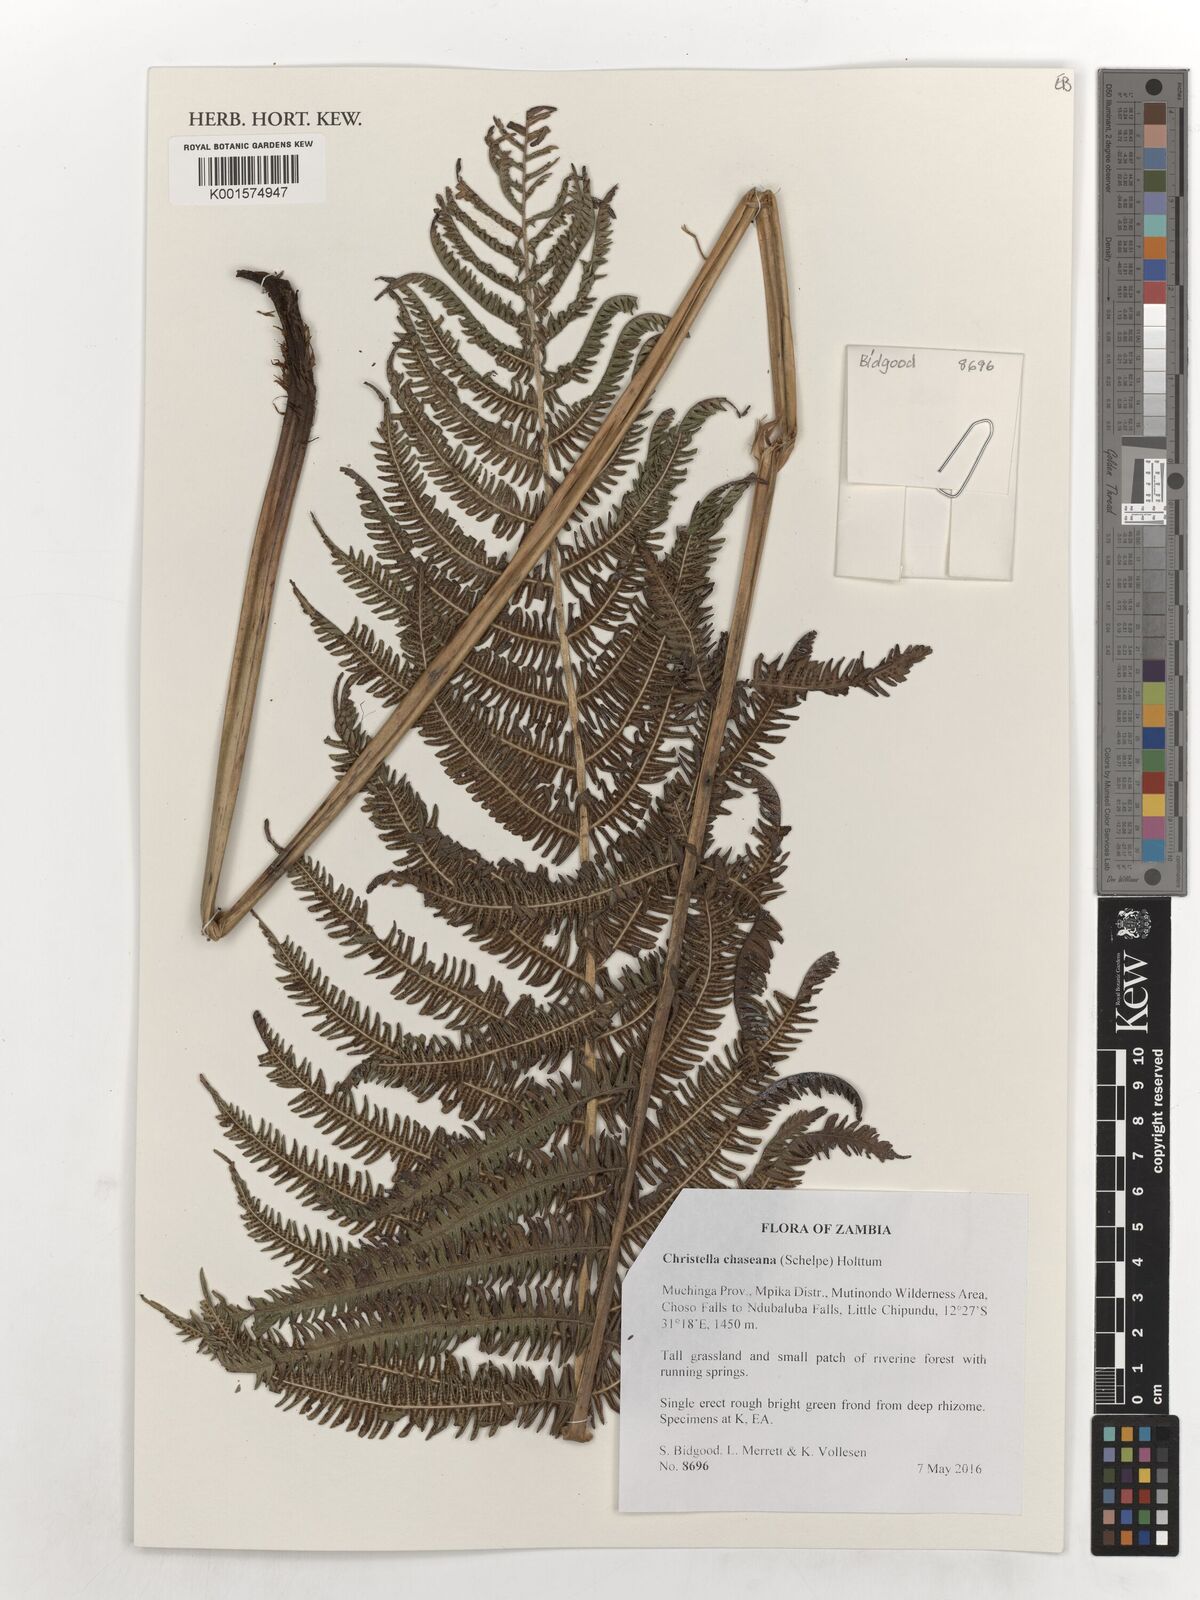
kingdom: Plantae
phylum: Tracheophyta
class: Polypodiopsida
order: Polypodiales
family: Thelypteridaceae
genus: Christella
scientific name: Christella chaseana
